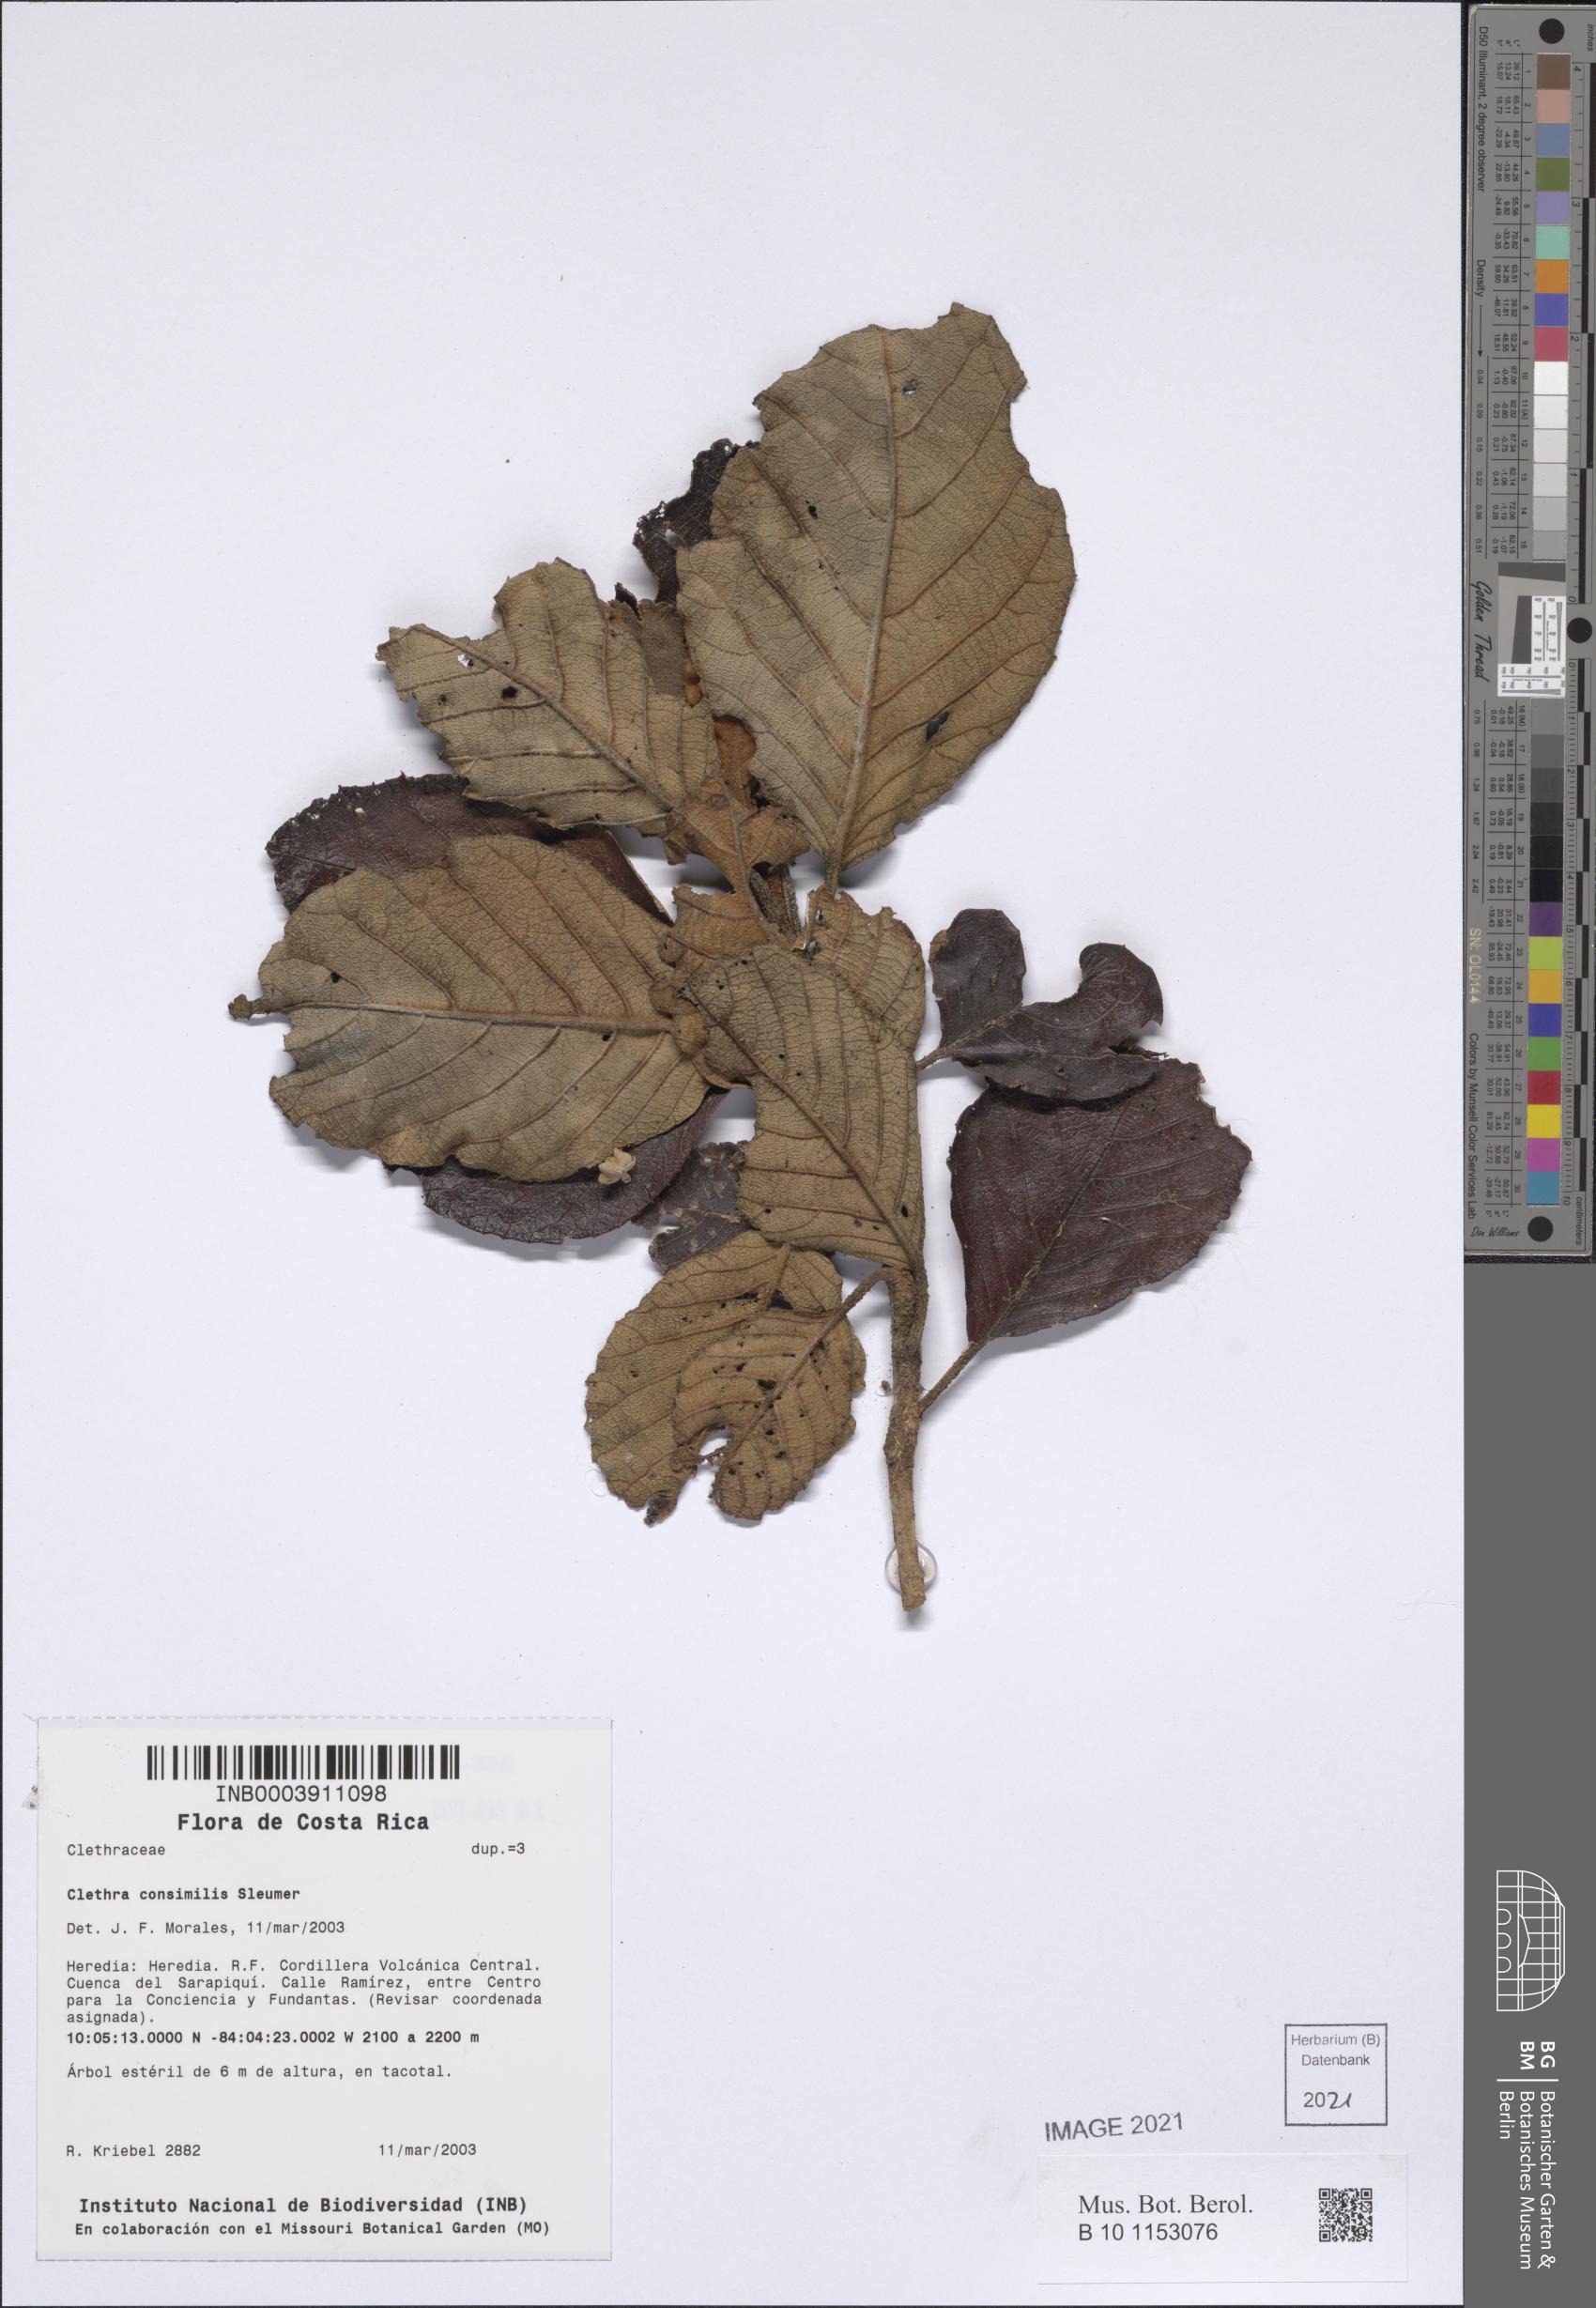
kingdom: Plantae
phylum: Tracheophyta
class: Magnoliopsida
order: Ericales
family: Clethraceae
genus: Clethra
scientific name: Clethra consimilis
